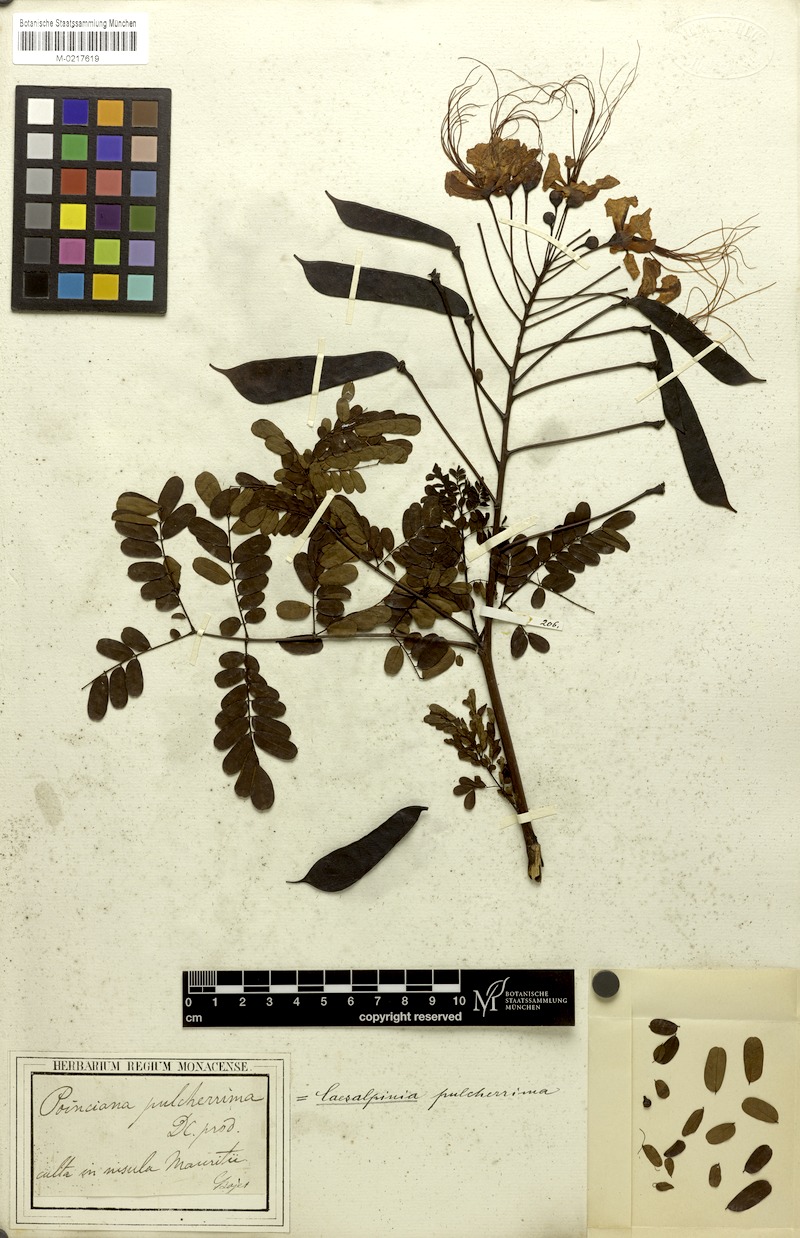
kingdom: Plantae
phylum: Tracheophyta
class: Magnoliopsida
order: Fabales
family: Fabaceae
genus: Caesalpinia
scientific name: Caesalpinia pulcherrima
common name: Pride-of-barbados
